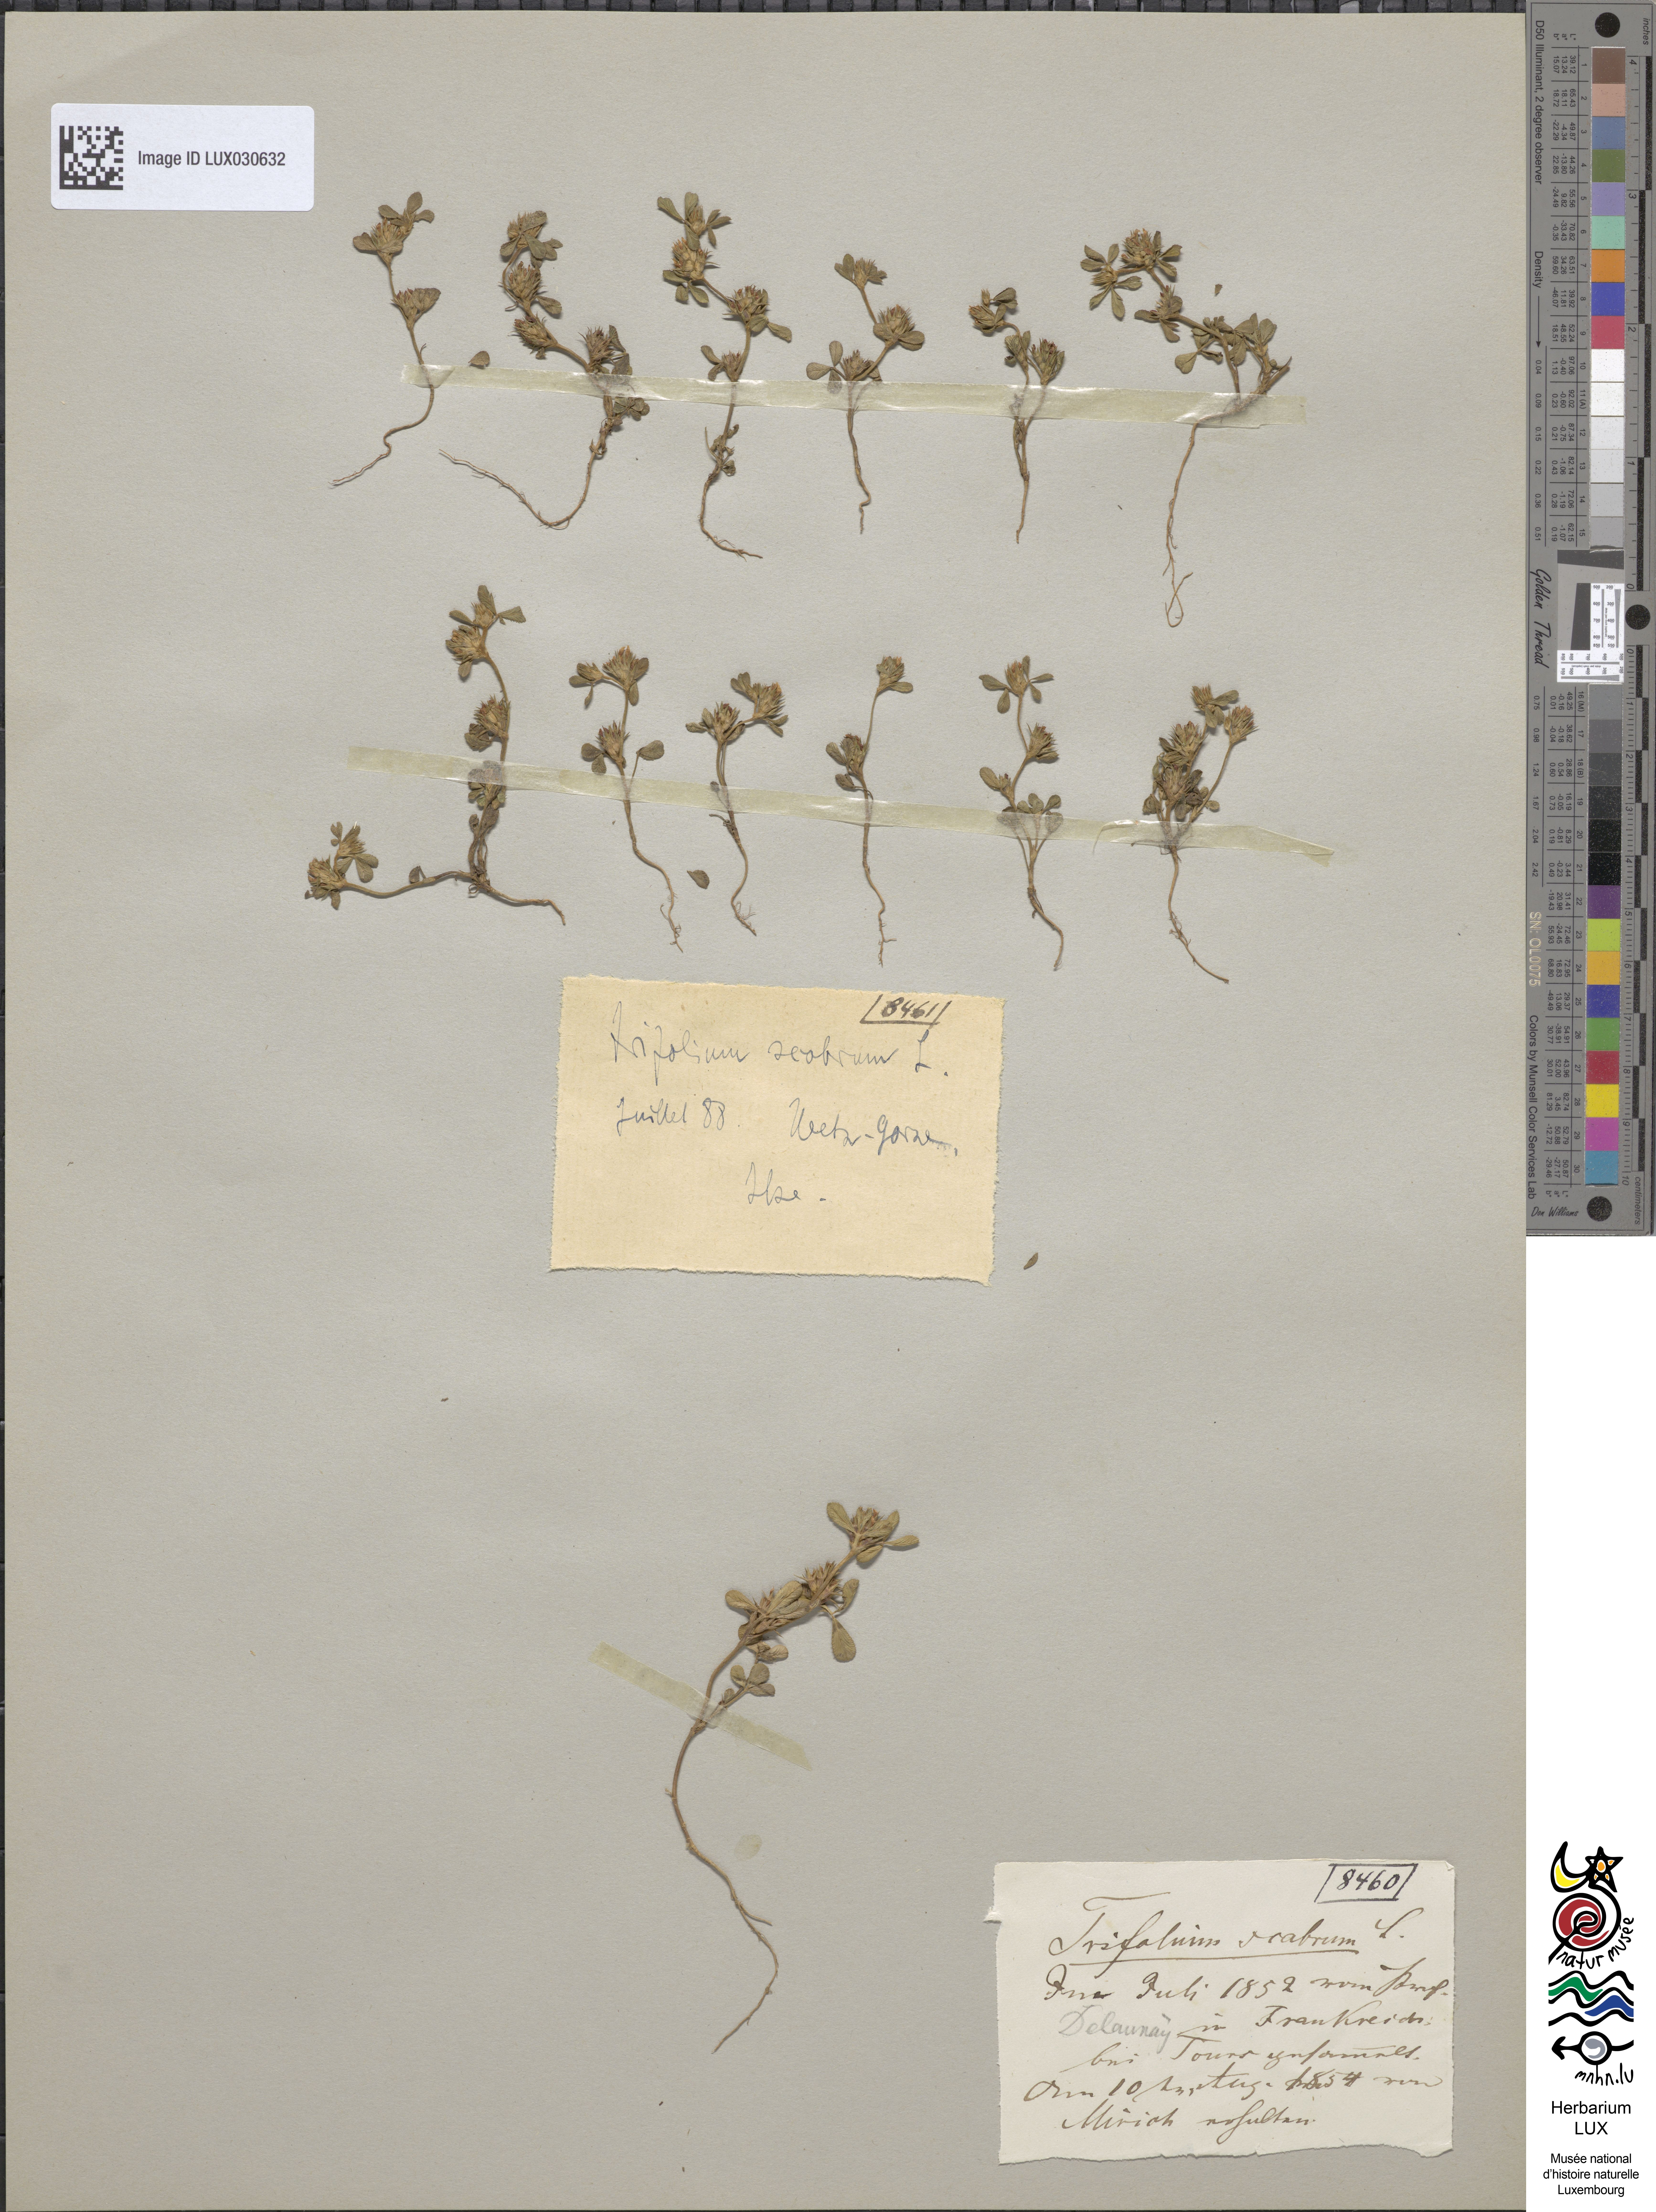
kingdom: Plantae
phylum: Tracheophyta
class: Magnoliopsida
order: Fabales
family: Fabaceae
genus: Trifolium
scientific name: Trifolium scabrum
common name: Rough clover
